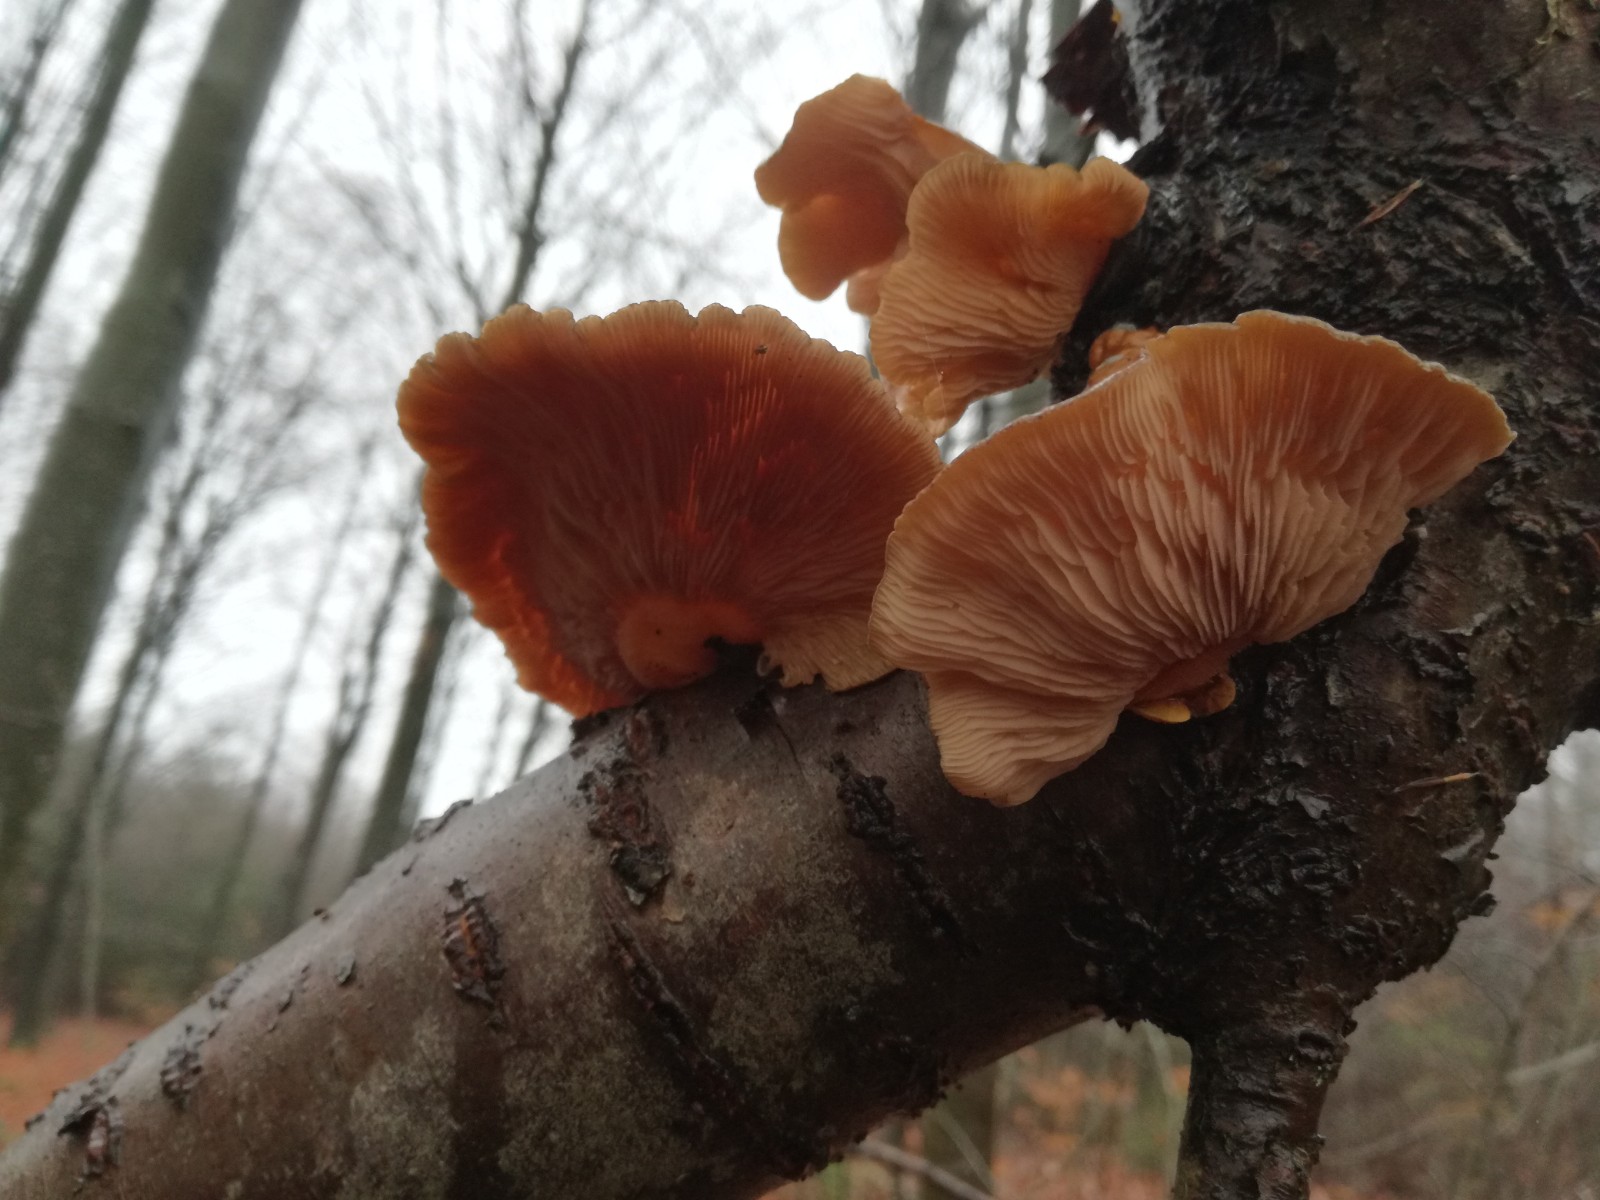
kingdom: Fungi
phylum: Basidiomycota
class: Agaricomycetes
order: Agaricales
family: Sarcomyxaceae
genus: Sarcomyxa
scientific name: Sarcomyxa serotina
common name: gummihat
